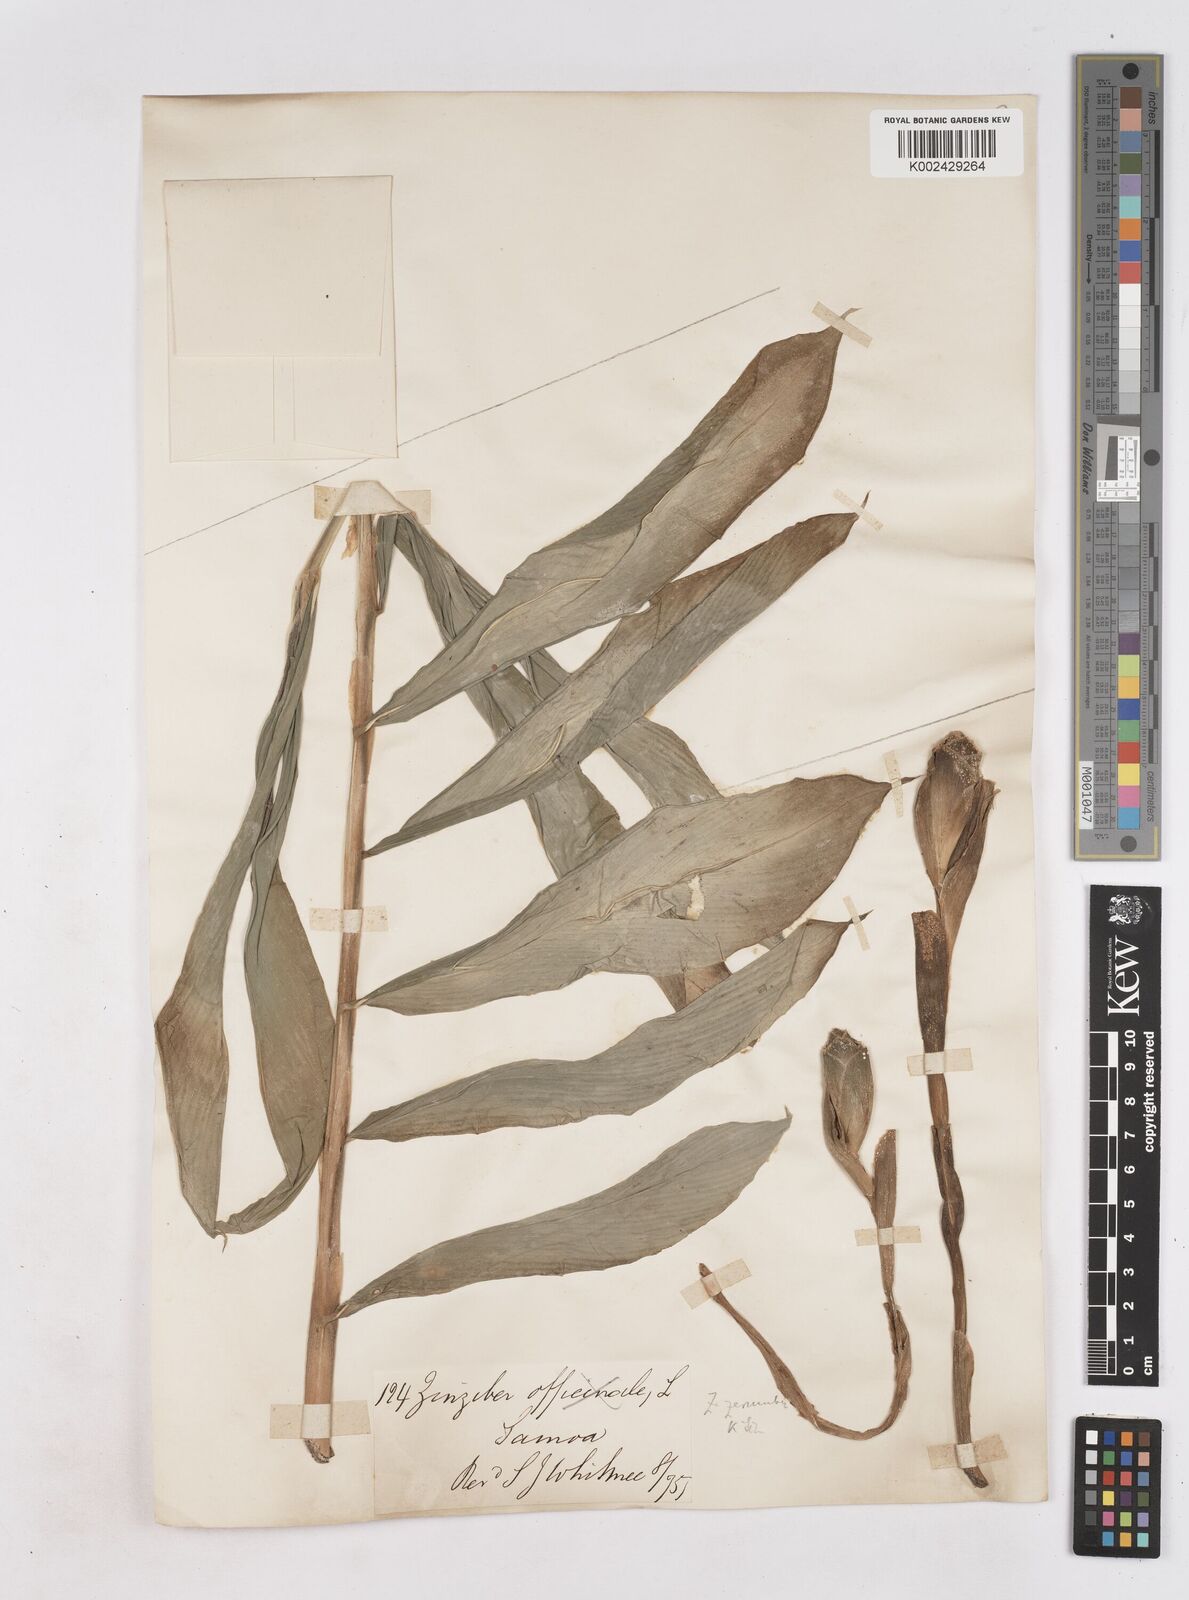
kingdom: Plantae
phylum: Tracheophyta
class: Liliopsida
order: Zingiberales
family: Zingiberaceae
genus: Zingiber
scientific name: Zingiber zerumbet
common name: Bitter ginger
